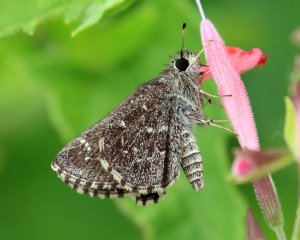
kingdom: Animalia
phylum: Arthropoda
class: Insecta
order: Lepidoptera
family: Hesperiidae
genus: Mastor
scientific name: Mastor celia
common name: Celia's Roadside-Skipper
